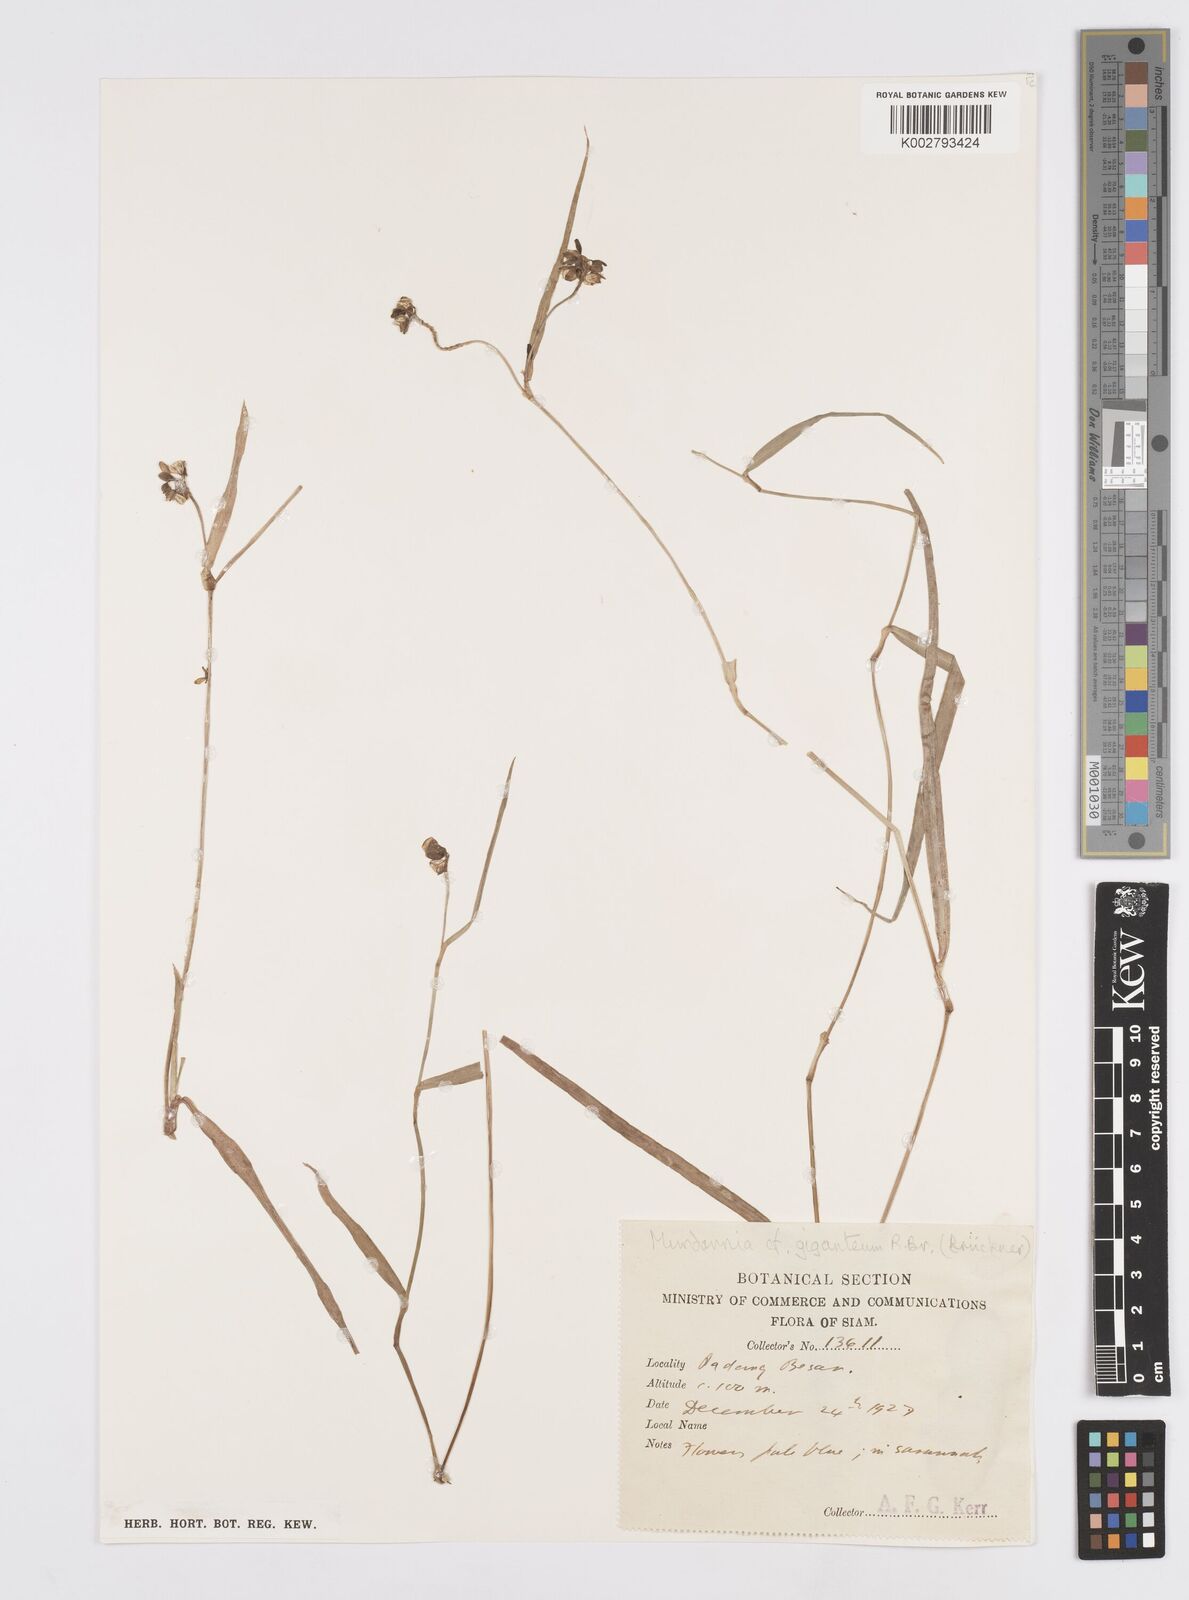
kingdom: Plantae
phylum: Tracheophyta
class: Liliopsida
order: Commelinales
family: Commelinaceae
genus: Murdannia
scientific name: Murdannia gigantea
